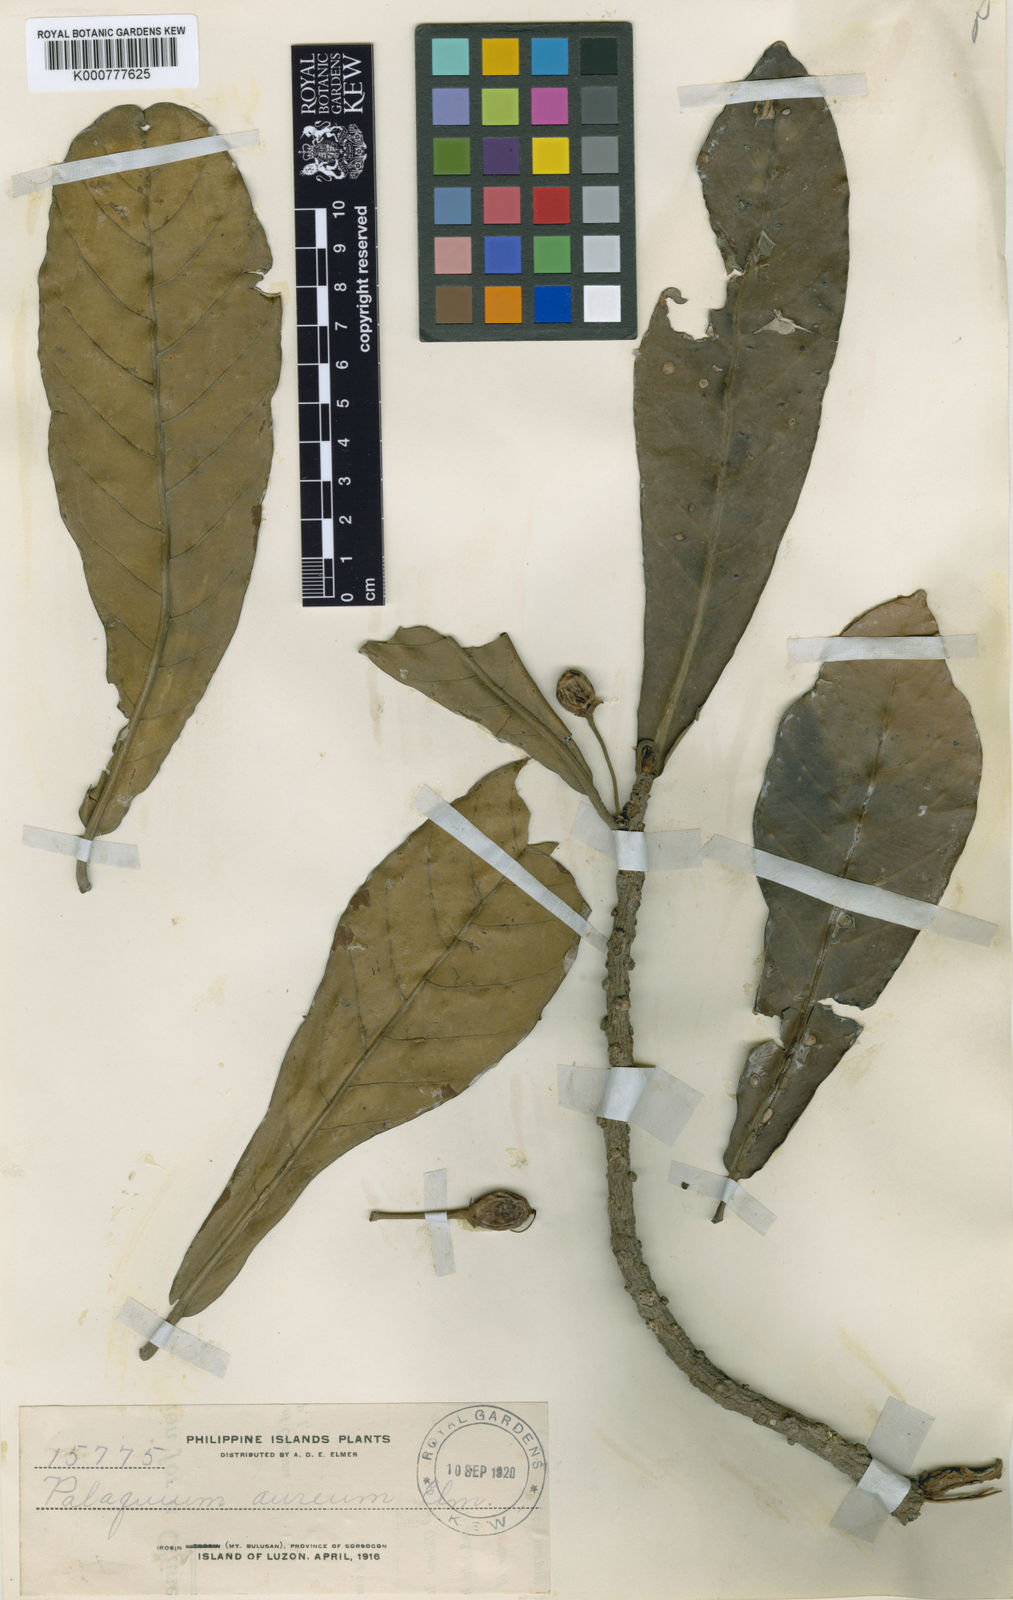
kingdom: Plantae
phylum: Tracheophyta
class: Magnoliopsida
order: Ericales
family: Sapotaceae
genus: Palaquium
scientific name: Palaquium philippense
